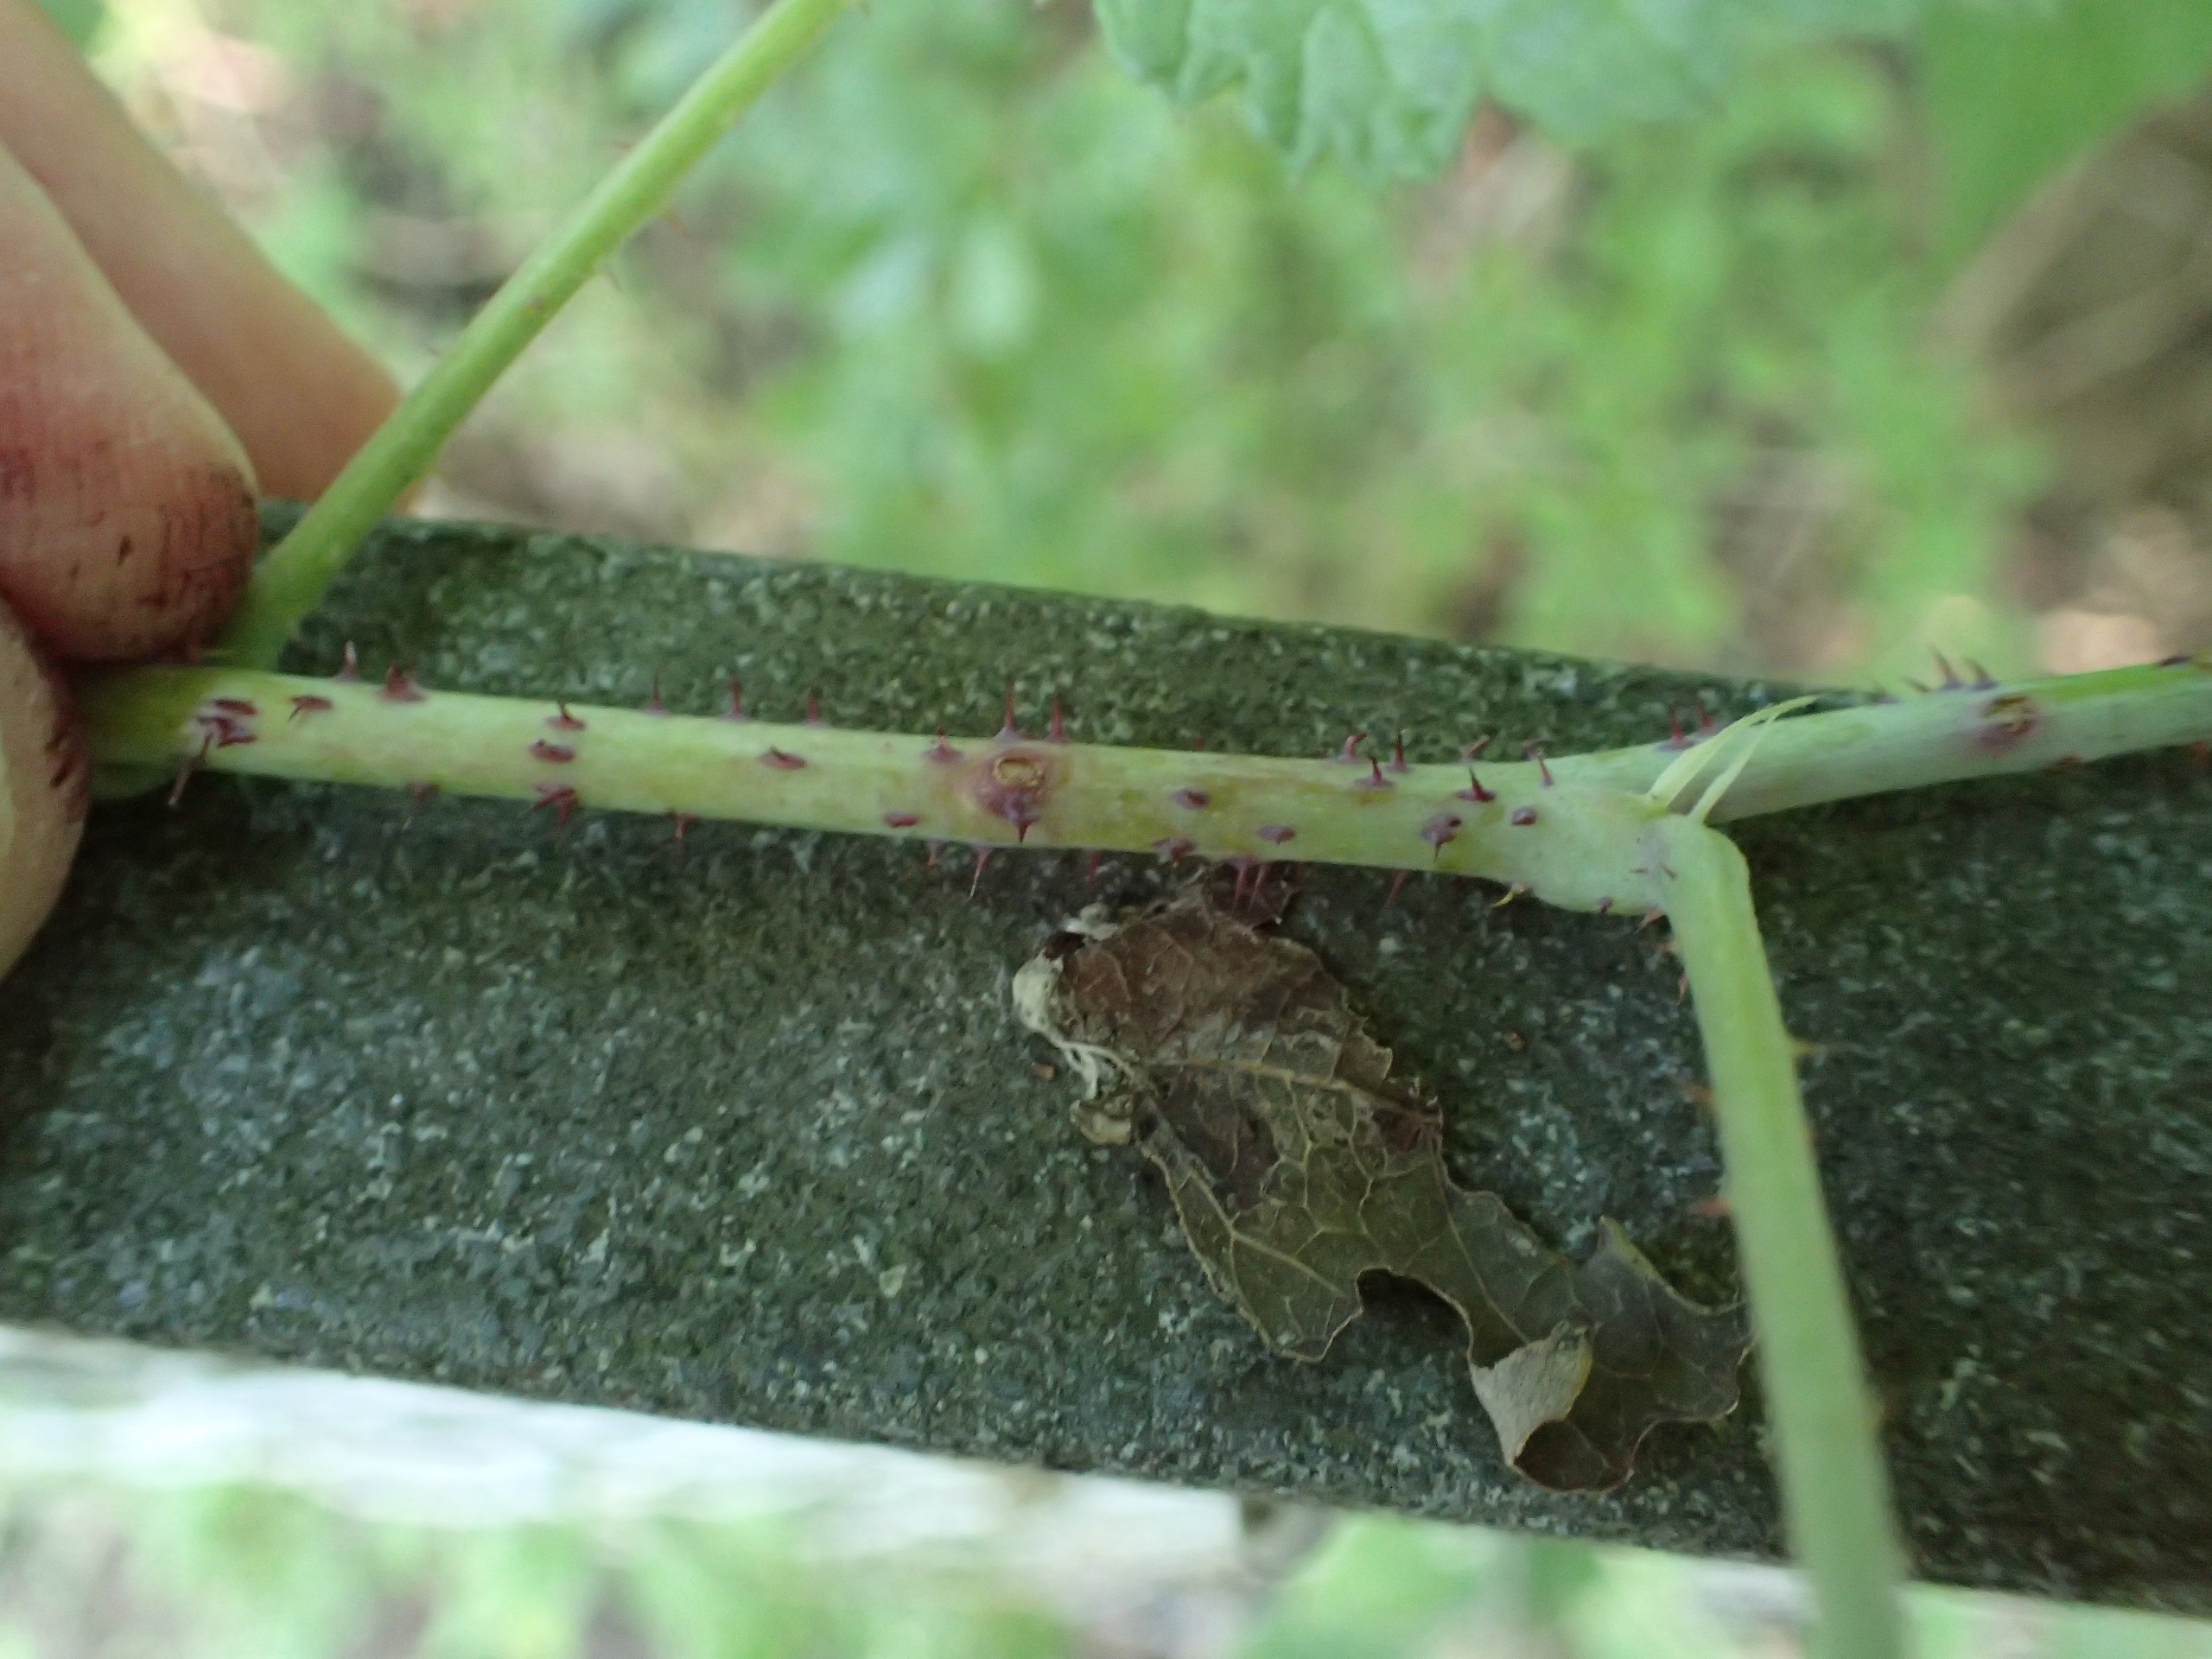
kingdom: Plantae
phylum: Tracheophyta
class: Magnoliopsida
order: Rosales
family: Rosaceae
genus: Rubus
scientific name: Rubus
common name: Korbær × hindbær
